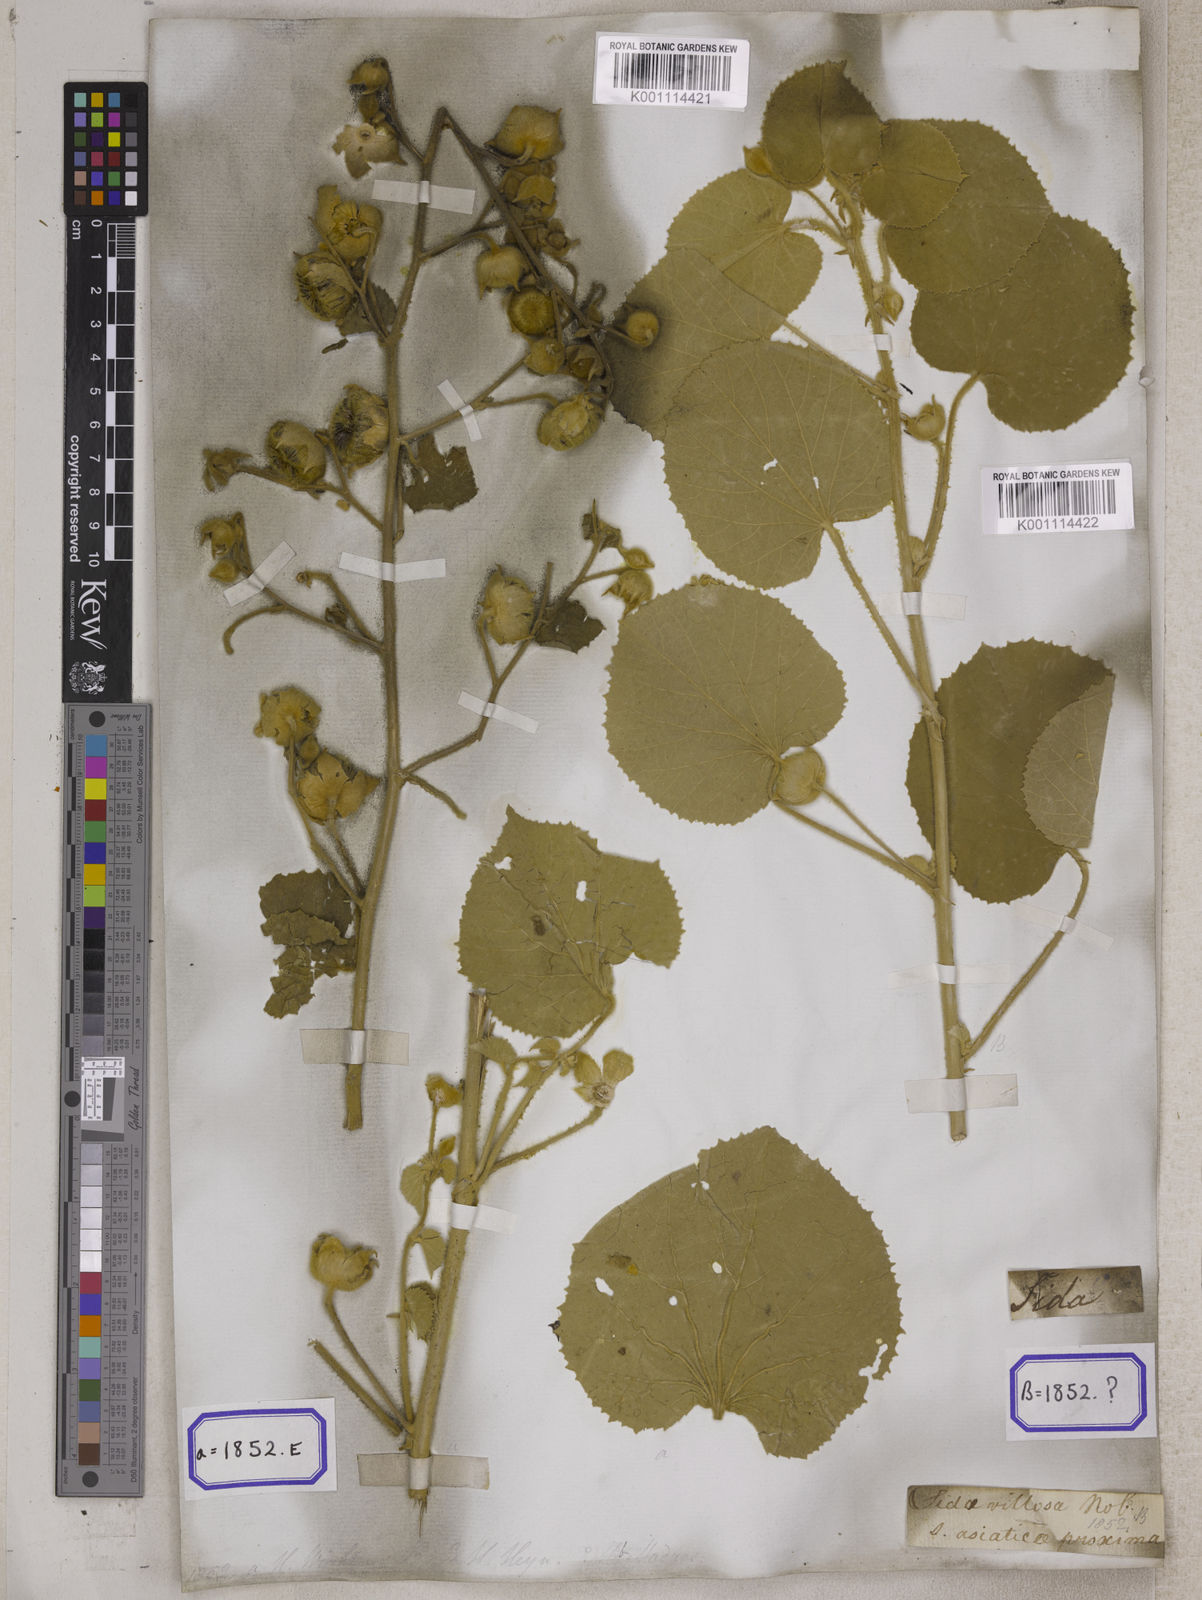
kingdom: Plantae
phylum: Tracheophyta
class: Magnoliopsida
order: Malvales
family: Malvaceae
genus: Abutilon
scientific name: Abutilon pannosum
